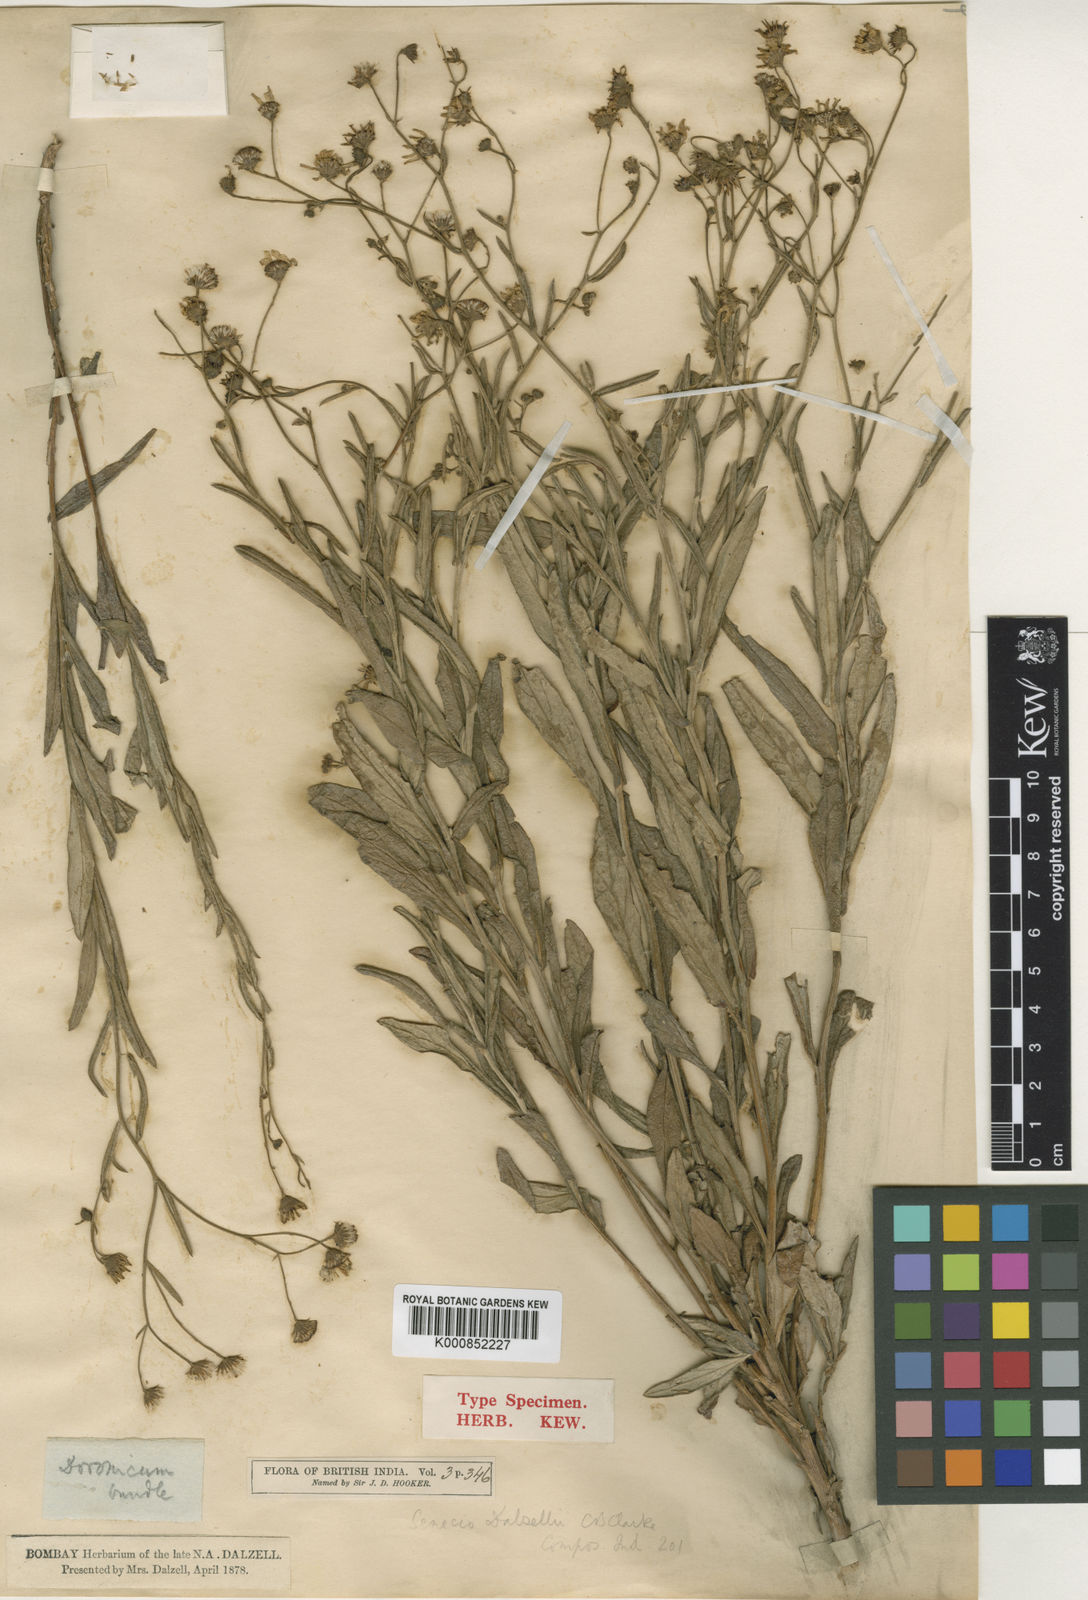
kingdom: Plantae
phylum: Tracheophyta
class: Magnoliopsida
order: Asterales
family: Asteraceae
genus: Senecio
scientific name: Senecio dalzellii
